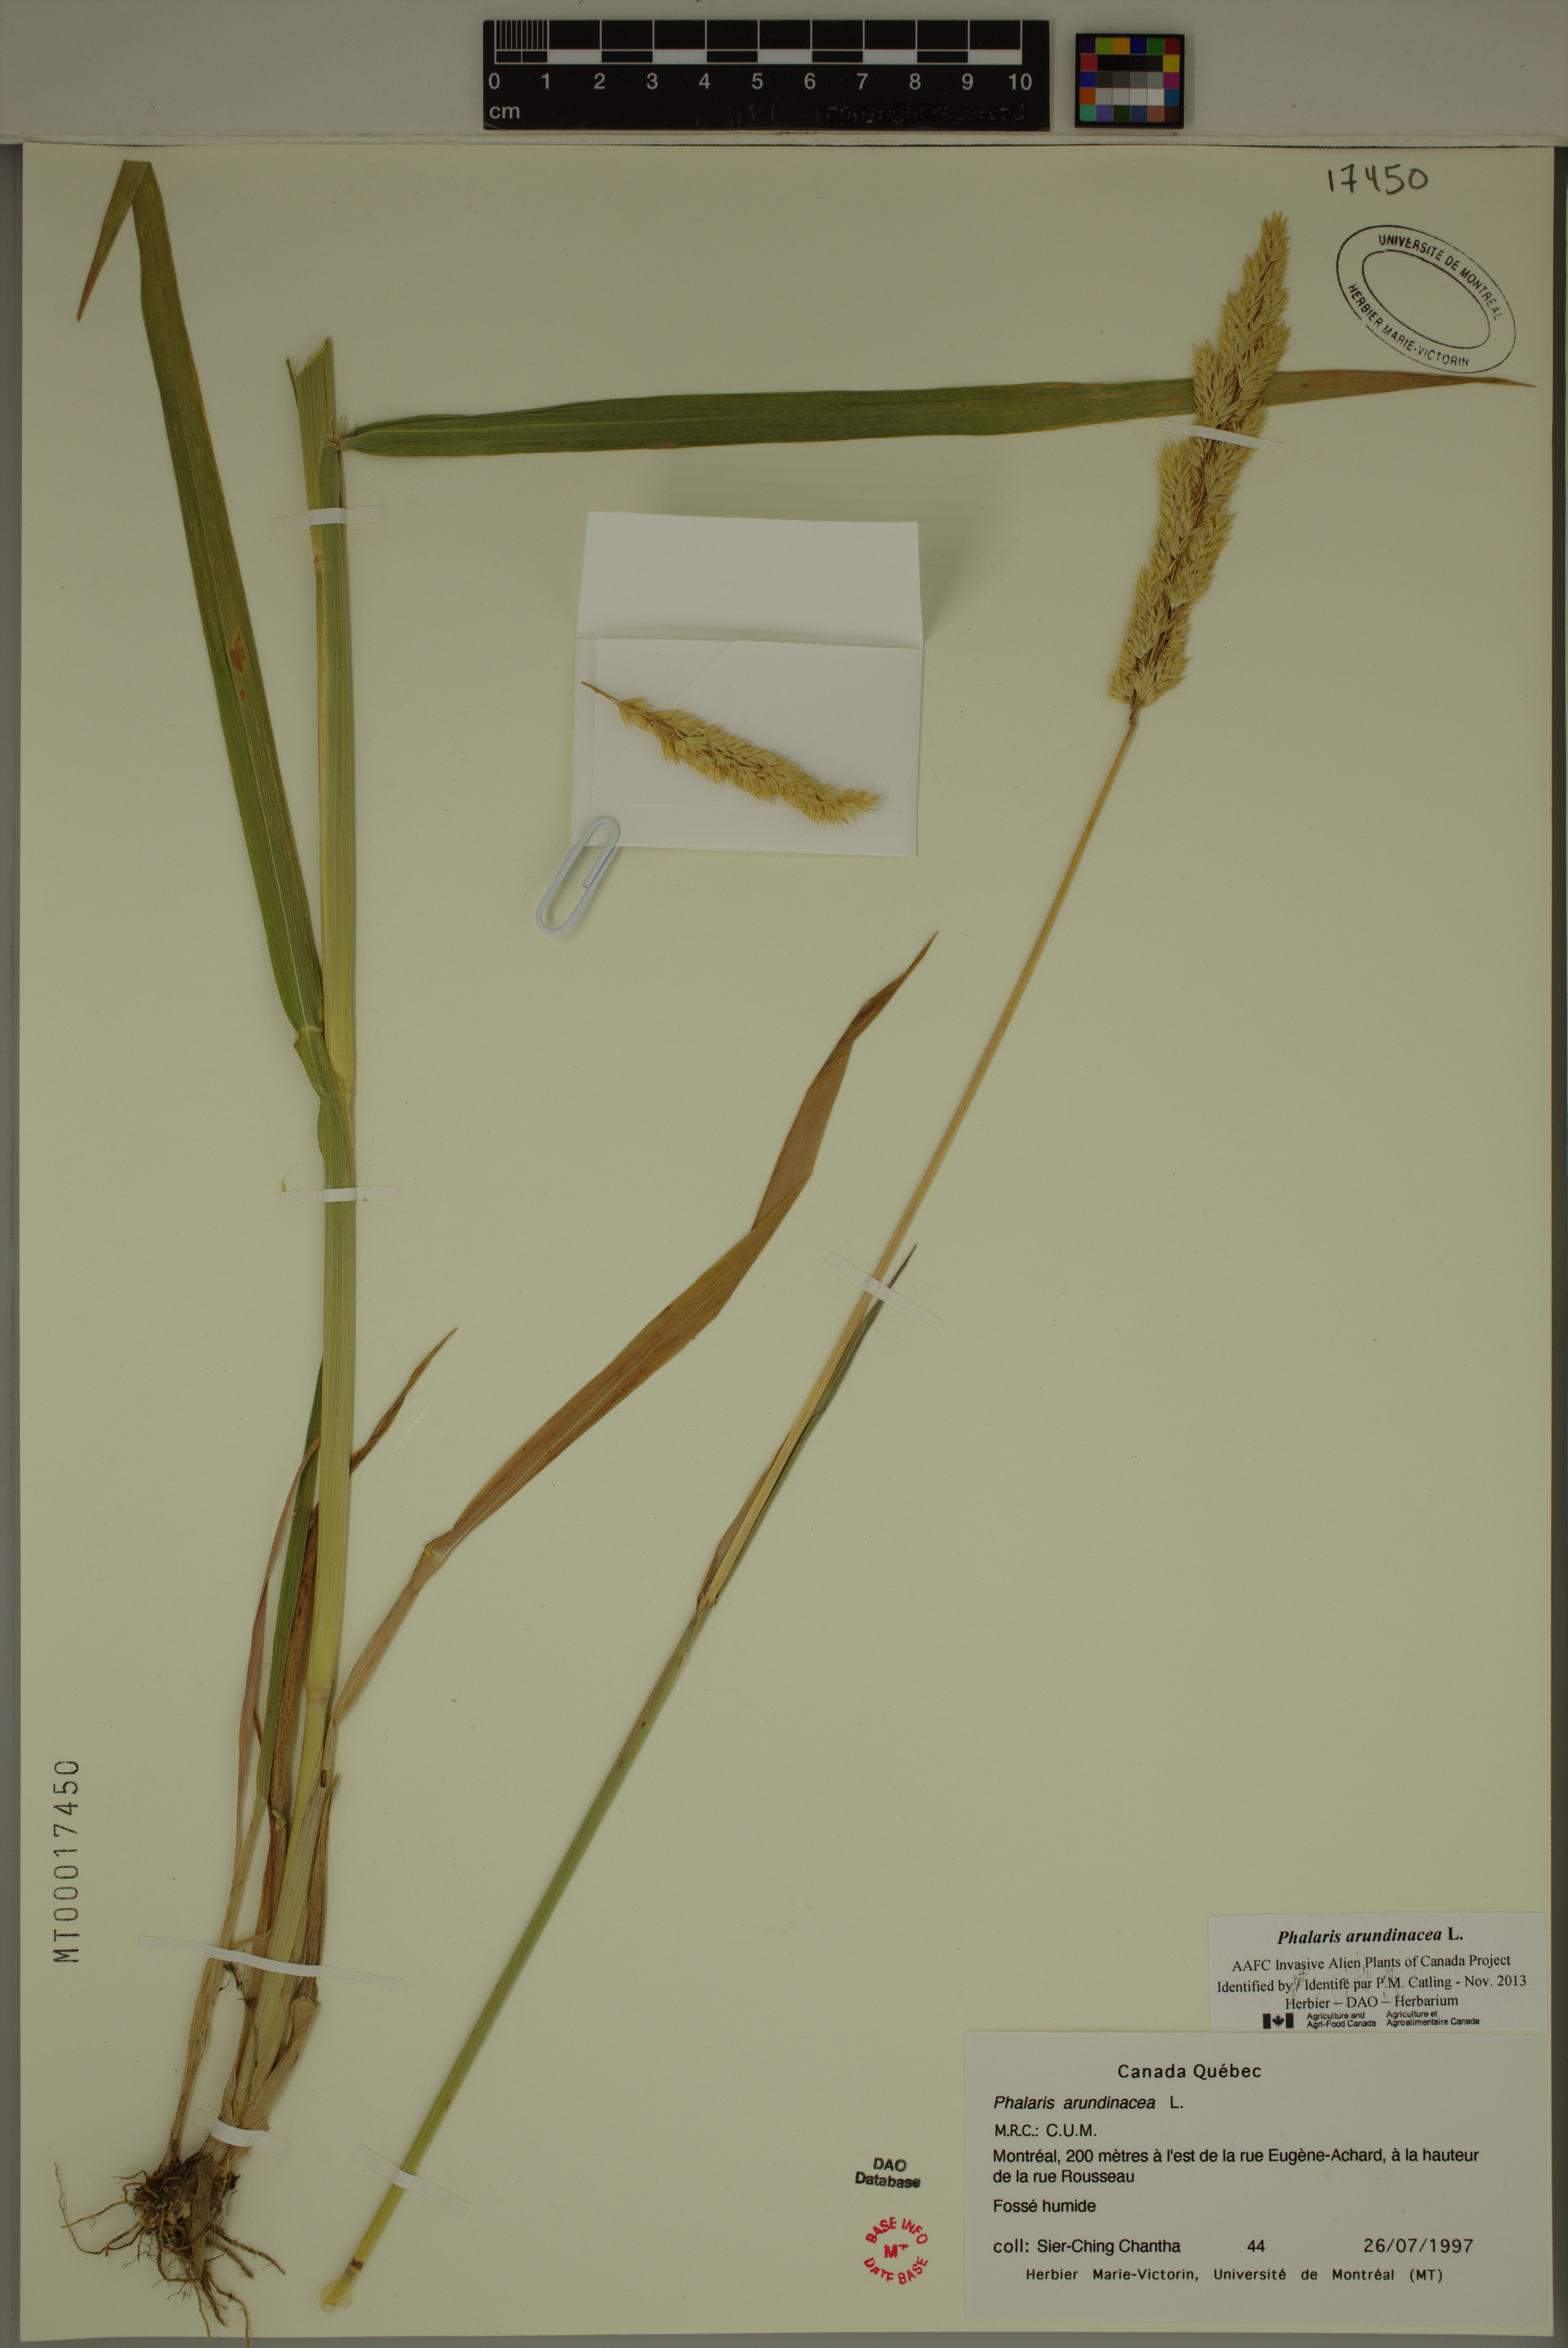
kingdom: Plantae
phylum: Tracheophyta
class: Liliopsida
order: Poales
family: Poaceae
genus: Phalaris
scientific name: Phalaris arundinacea
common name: Reed canary-grass
